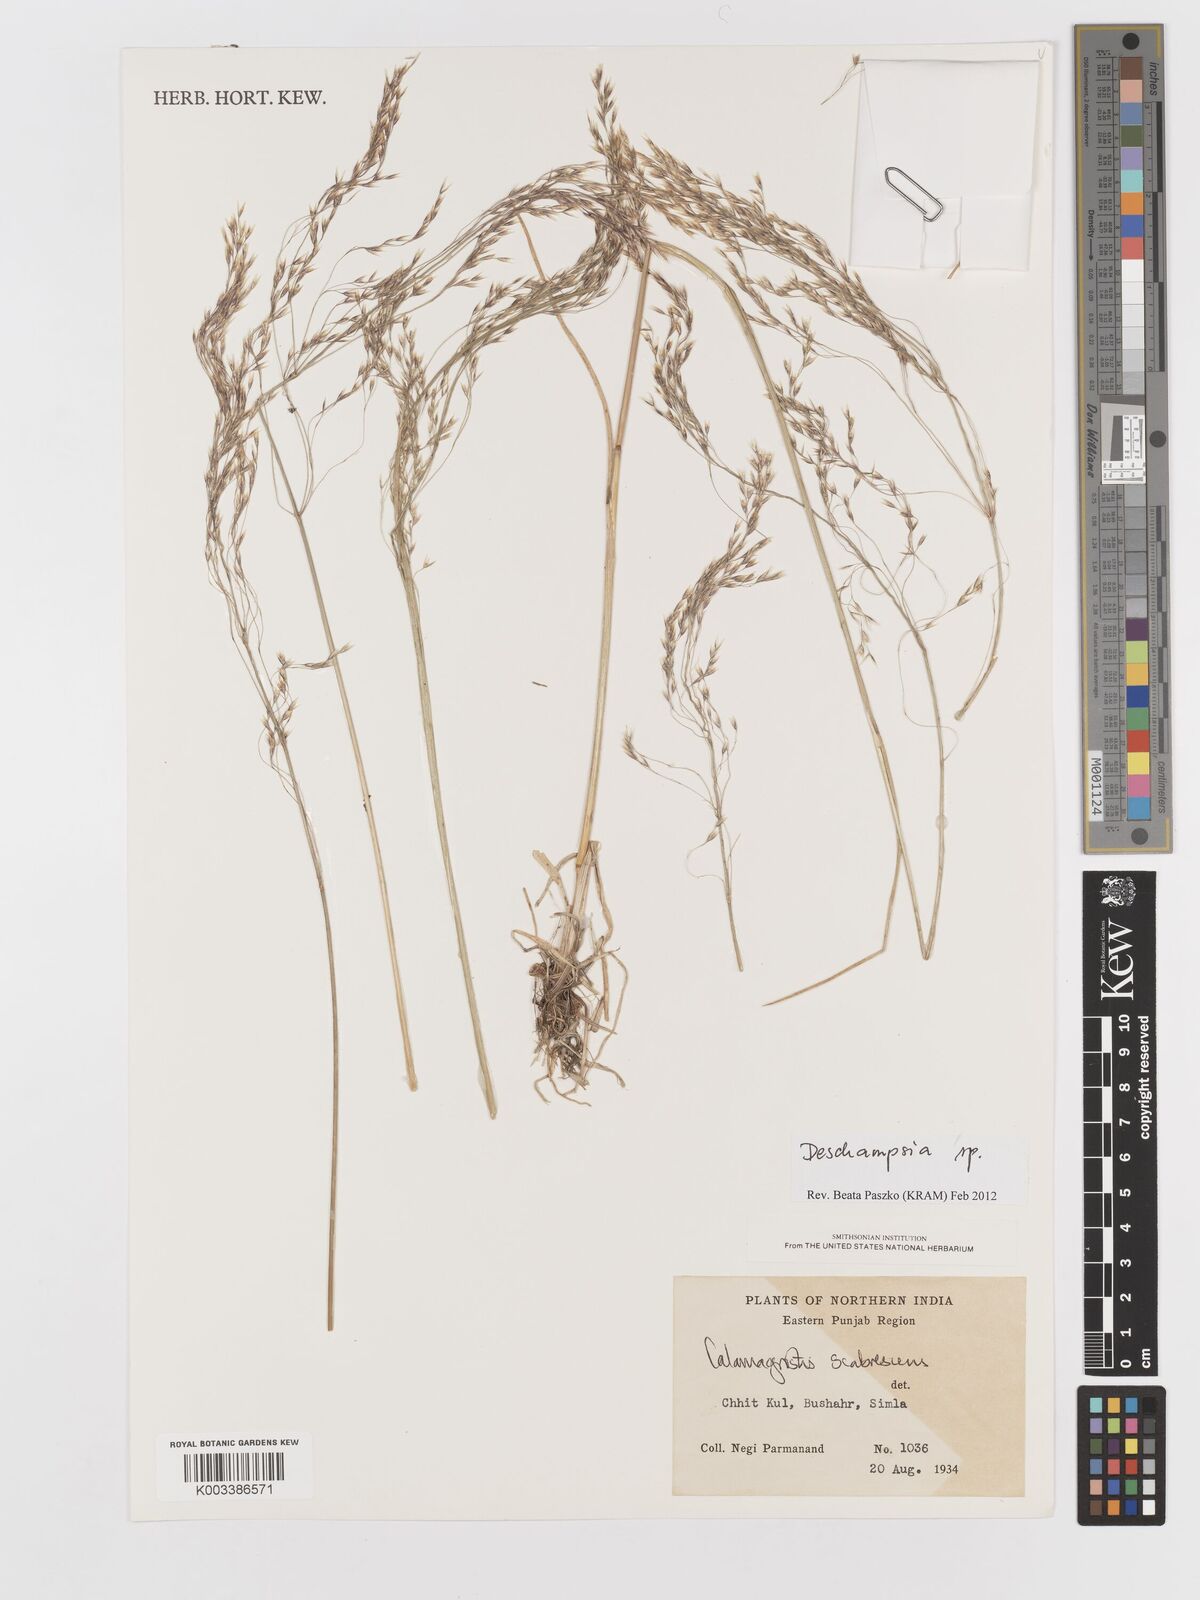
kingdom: Plantae
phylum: Tracheophyta
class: Liliopsida
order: Poales
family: Poaceae
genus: Deschampsia
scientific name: Deschampsia
